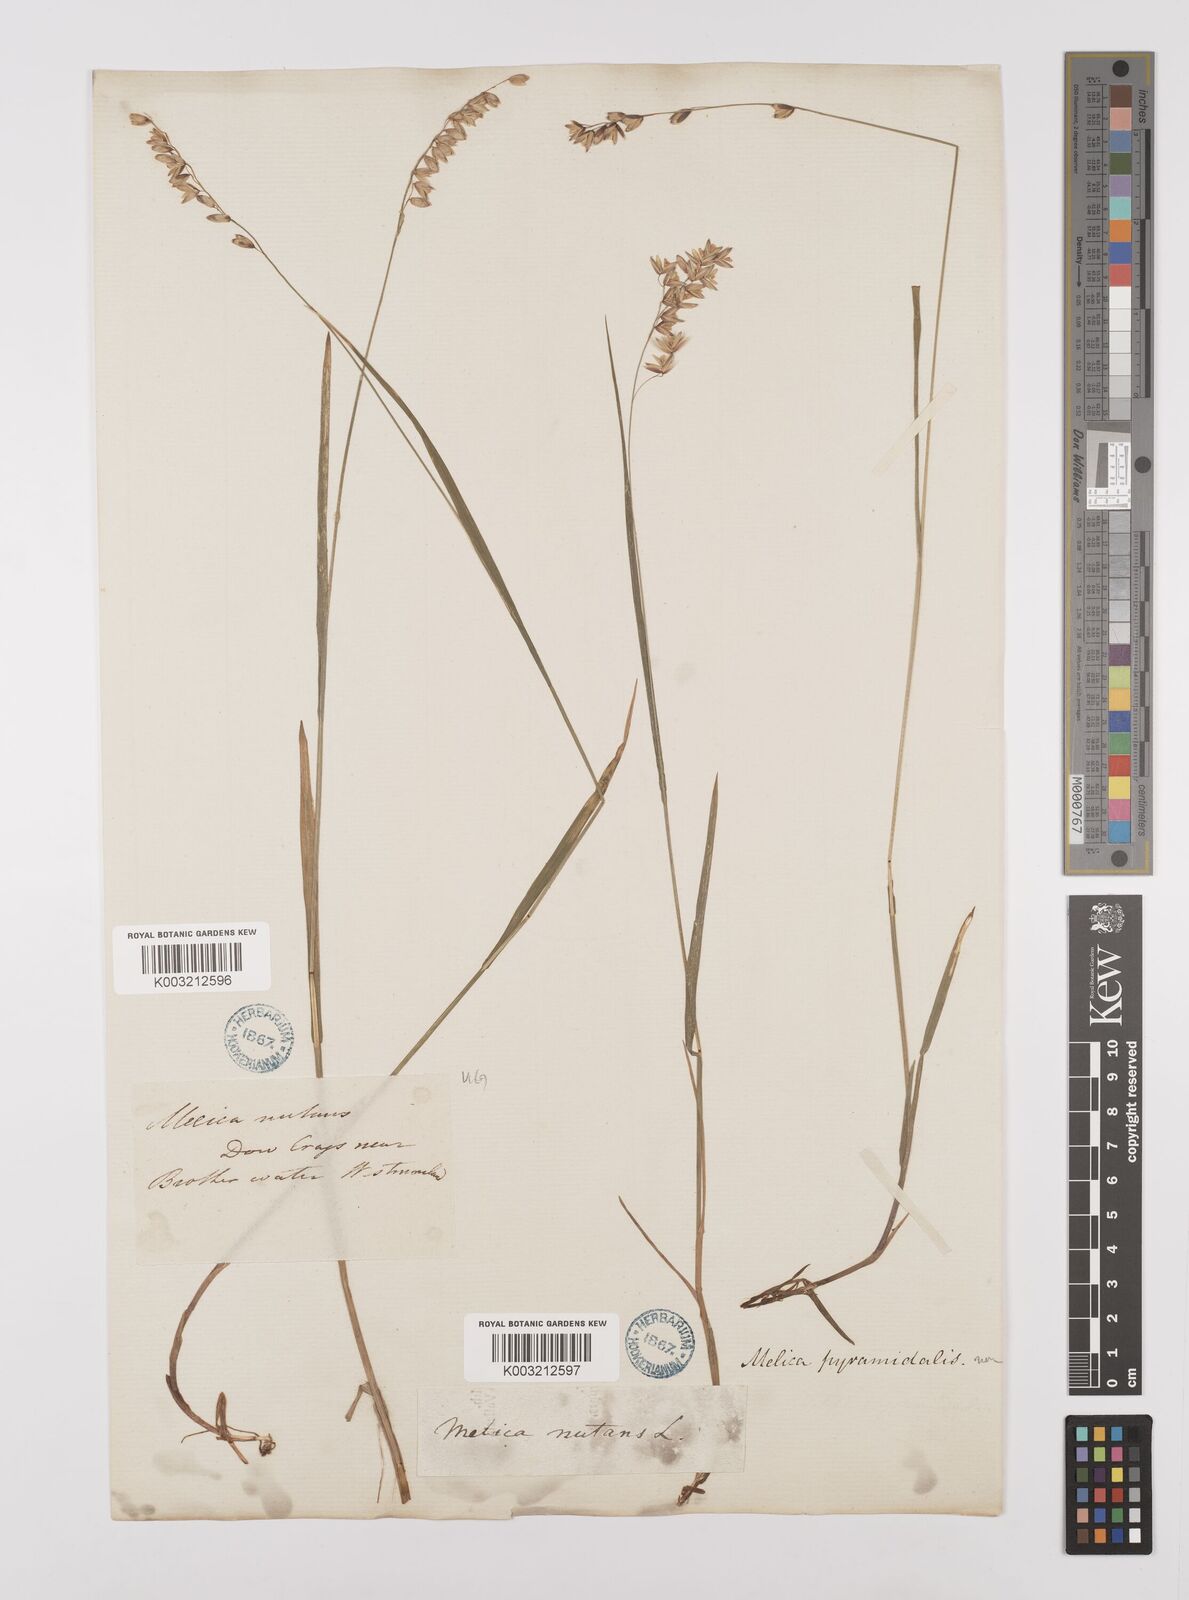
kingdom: Plantae
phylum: Tracheophyta
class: Liliopsida
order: Poales
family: Poaceae
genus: Melica
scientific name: Melica
